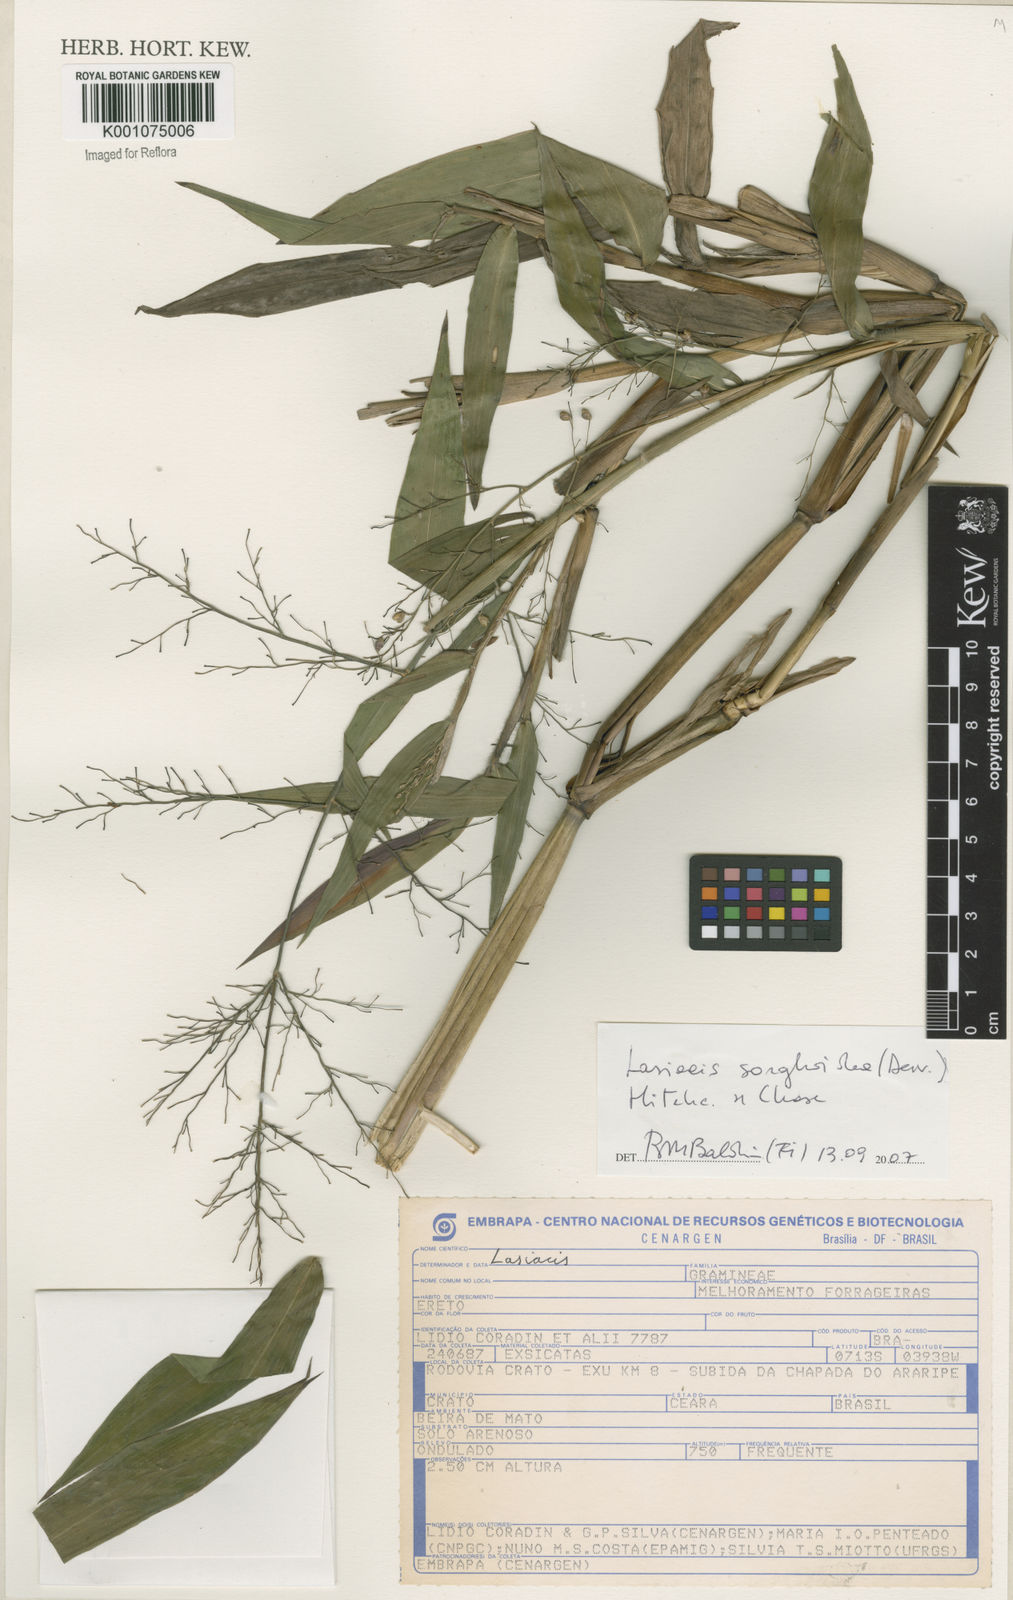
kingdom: Plantae
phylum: Tracheophyta
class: Liliopsida
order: Poales
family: Poaceae
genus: Lasiacis
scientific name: Lasiacis maculata
